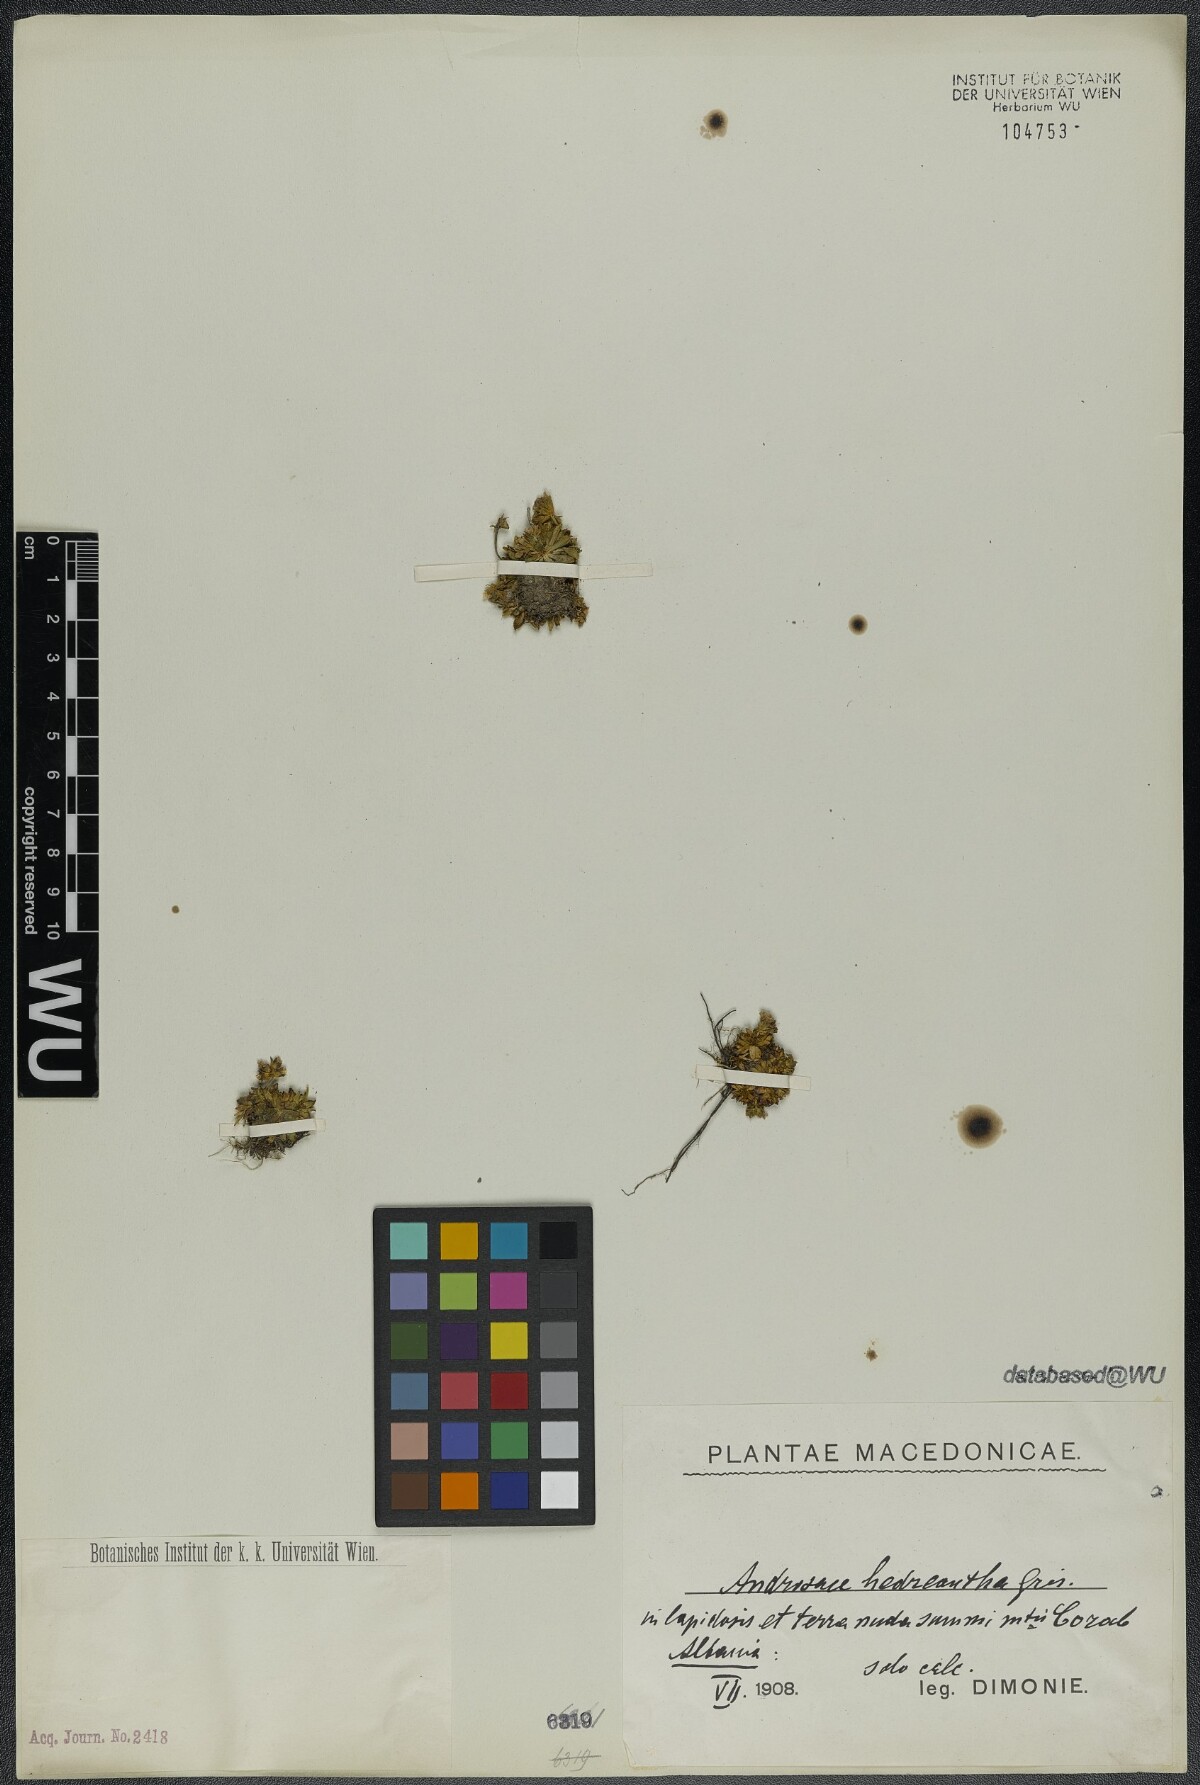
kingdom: Plantae
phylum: Tracheophyta
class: Magnoliopsida
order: Ericales
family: Primulaceae
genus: Androsace
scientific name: Androsace hedraeantha
